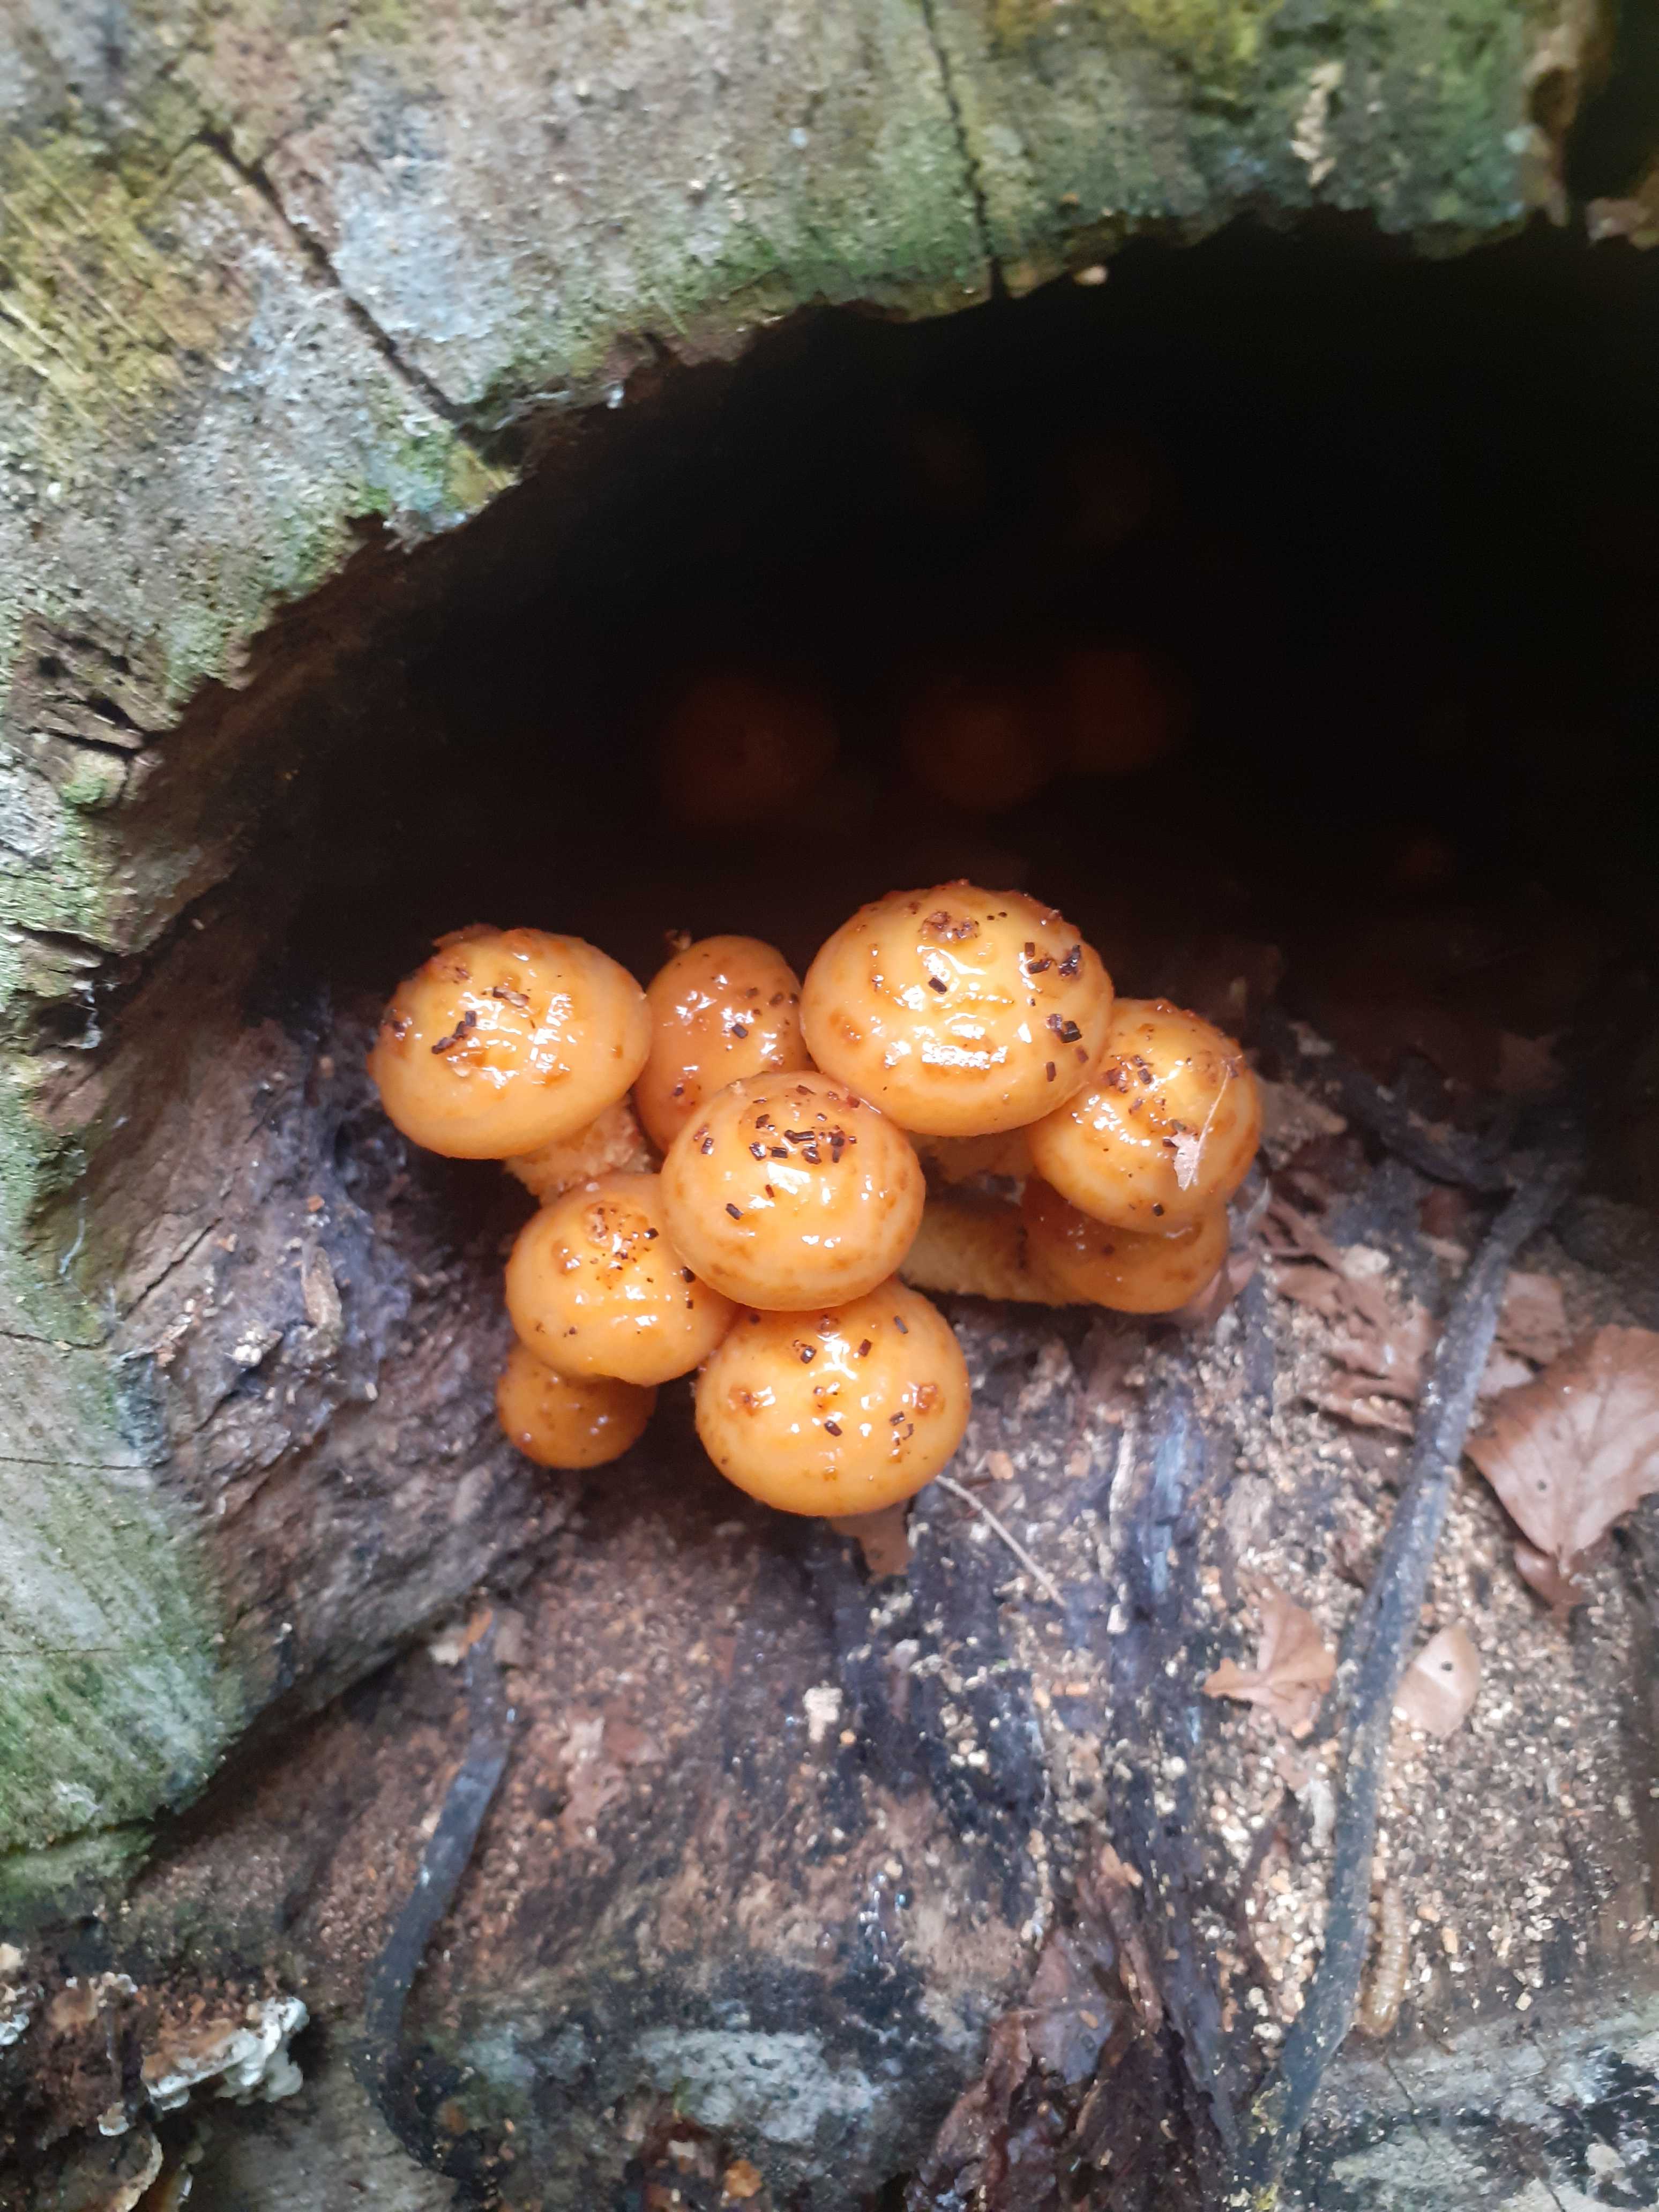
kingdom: Fungi
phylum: Basidiomycota
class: Agaricomycetes
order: Agaricales
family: Strophariaceae
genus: Pholiota
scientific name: Pholiota adiposa
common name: højtsiddende skælhat
